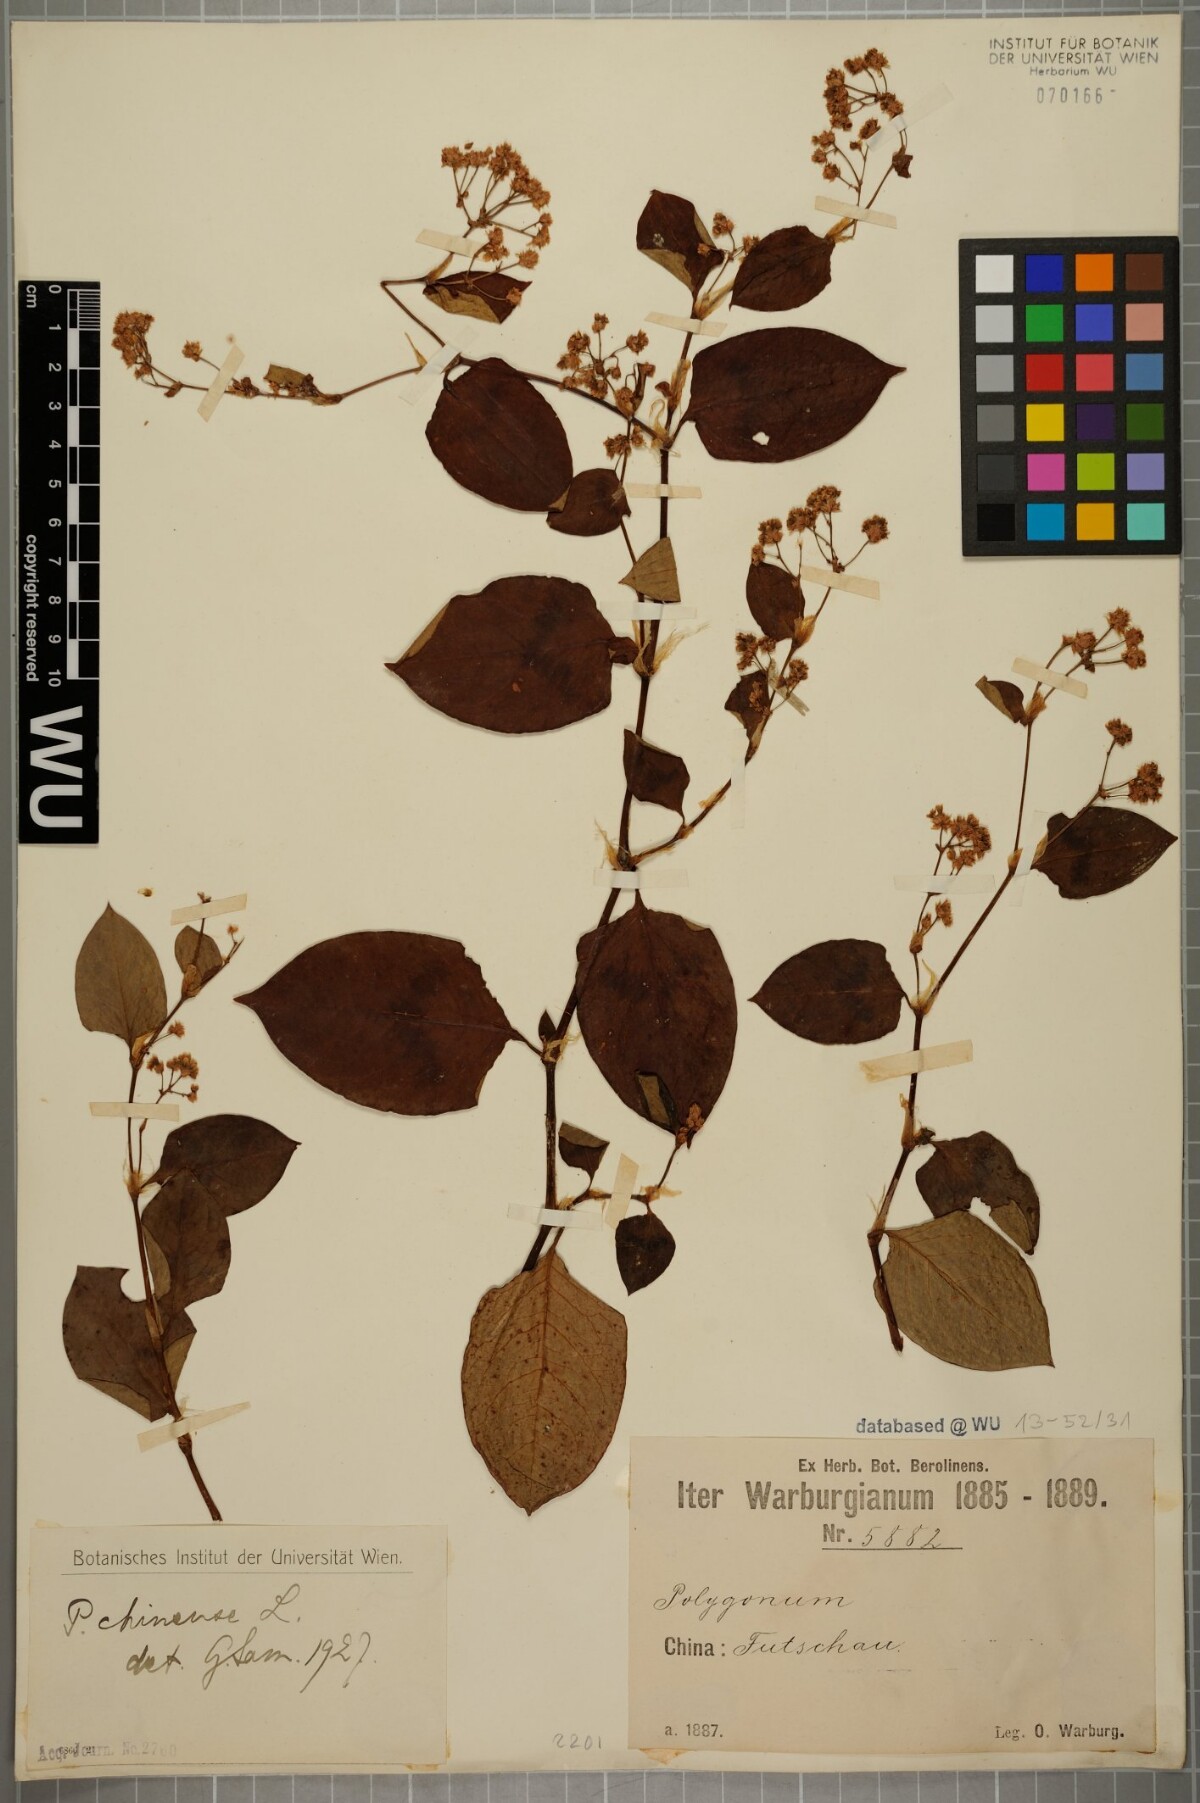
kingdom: Plantae
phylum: Tracheophyta
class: Magnoliopsida
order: Caryophyllales
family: Polygonaceae
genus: Persicaria
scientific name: Persicaria chinensis
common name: Chinese knotweed
